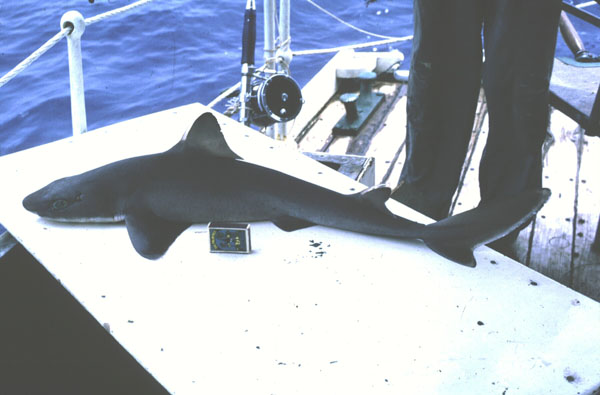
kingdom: Animalia
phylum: Chordata
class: Elasmobranchii
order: Squaliformes
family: Squalidae
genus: Squalus
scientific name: Squalus mitsukurii
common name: Shortspine spurdog
